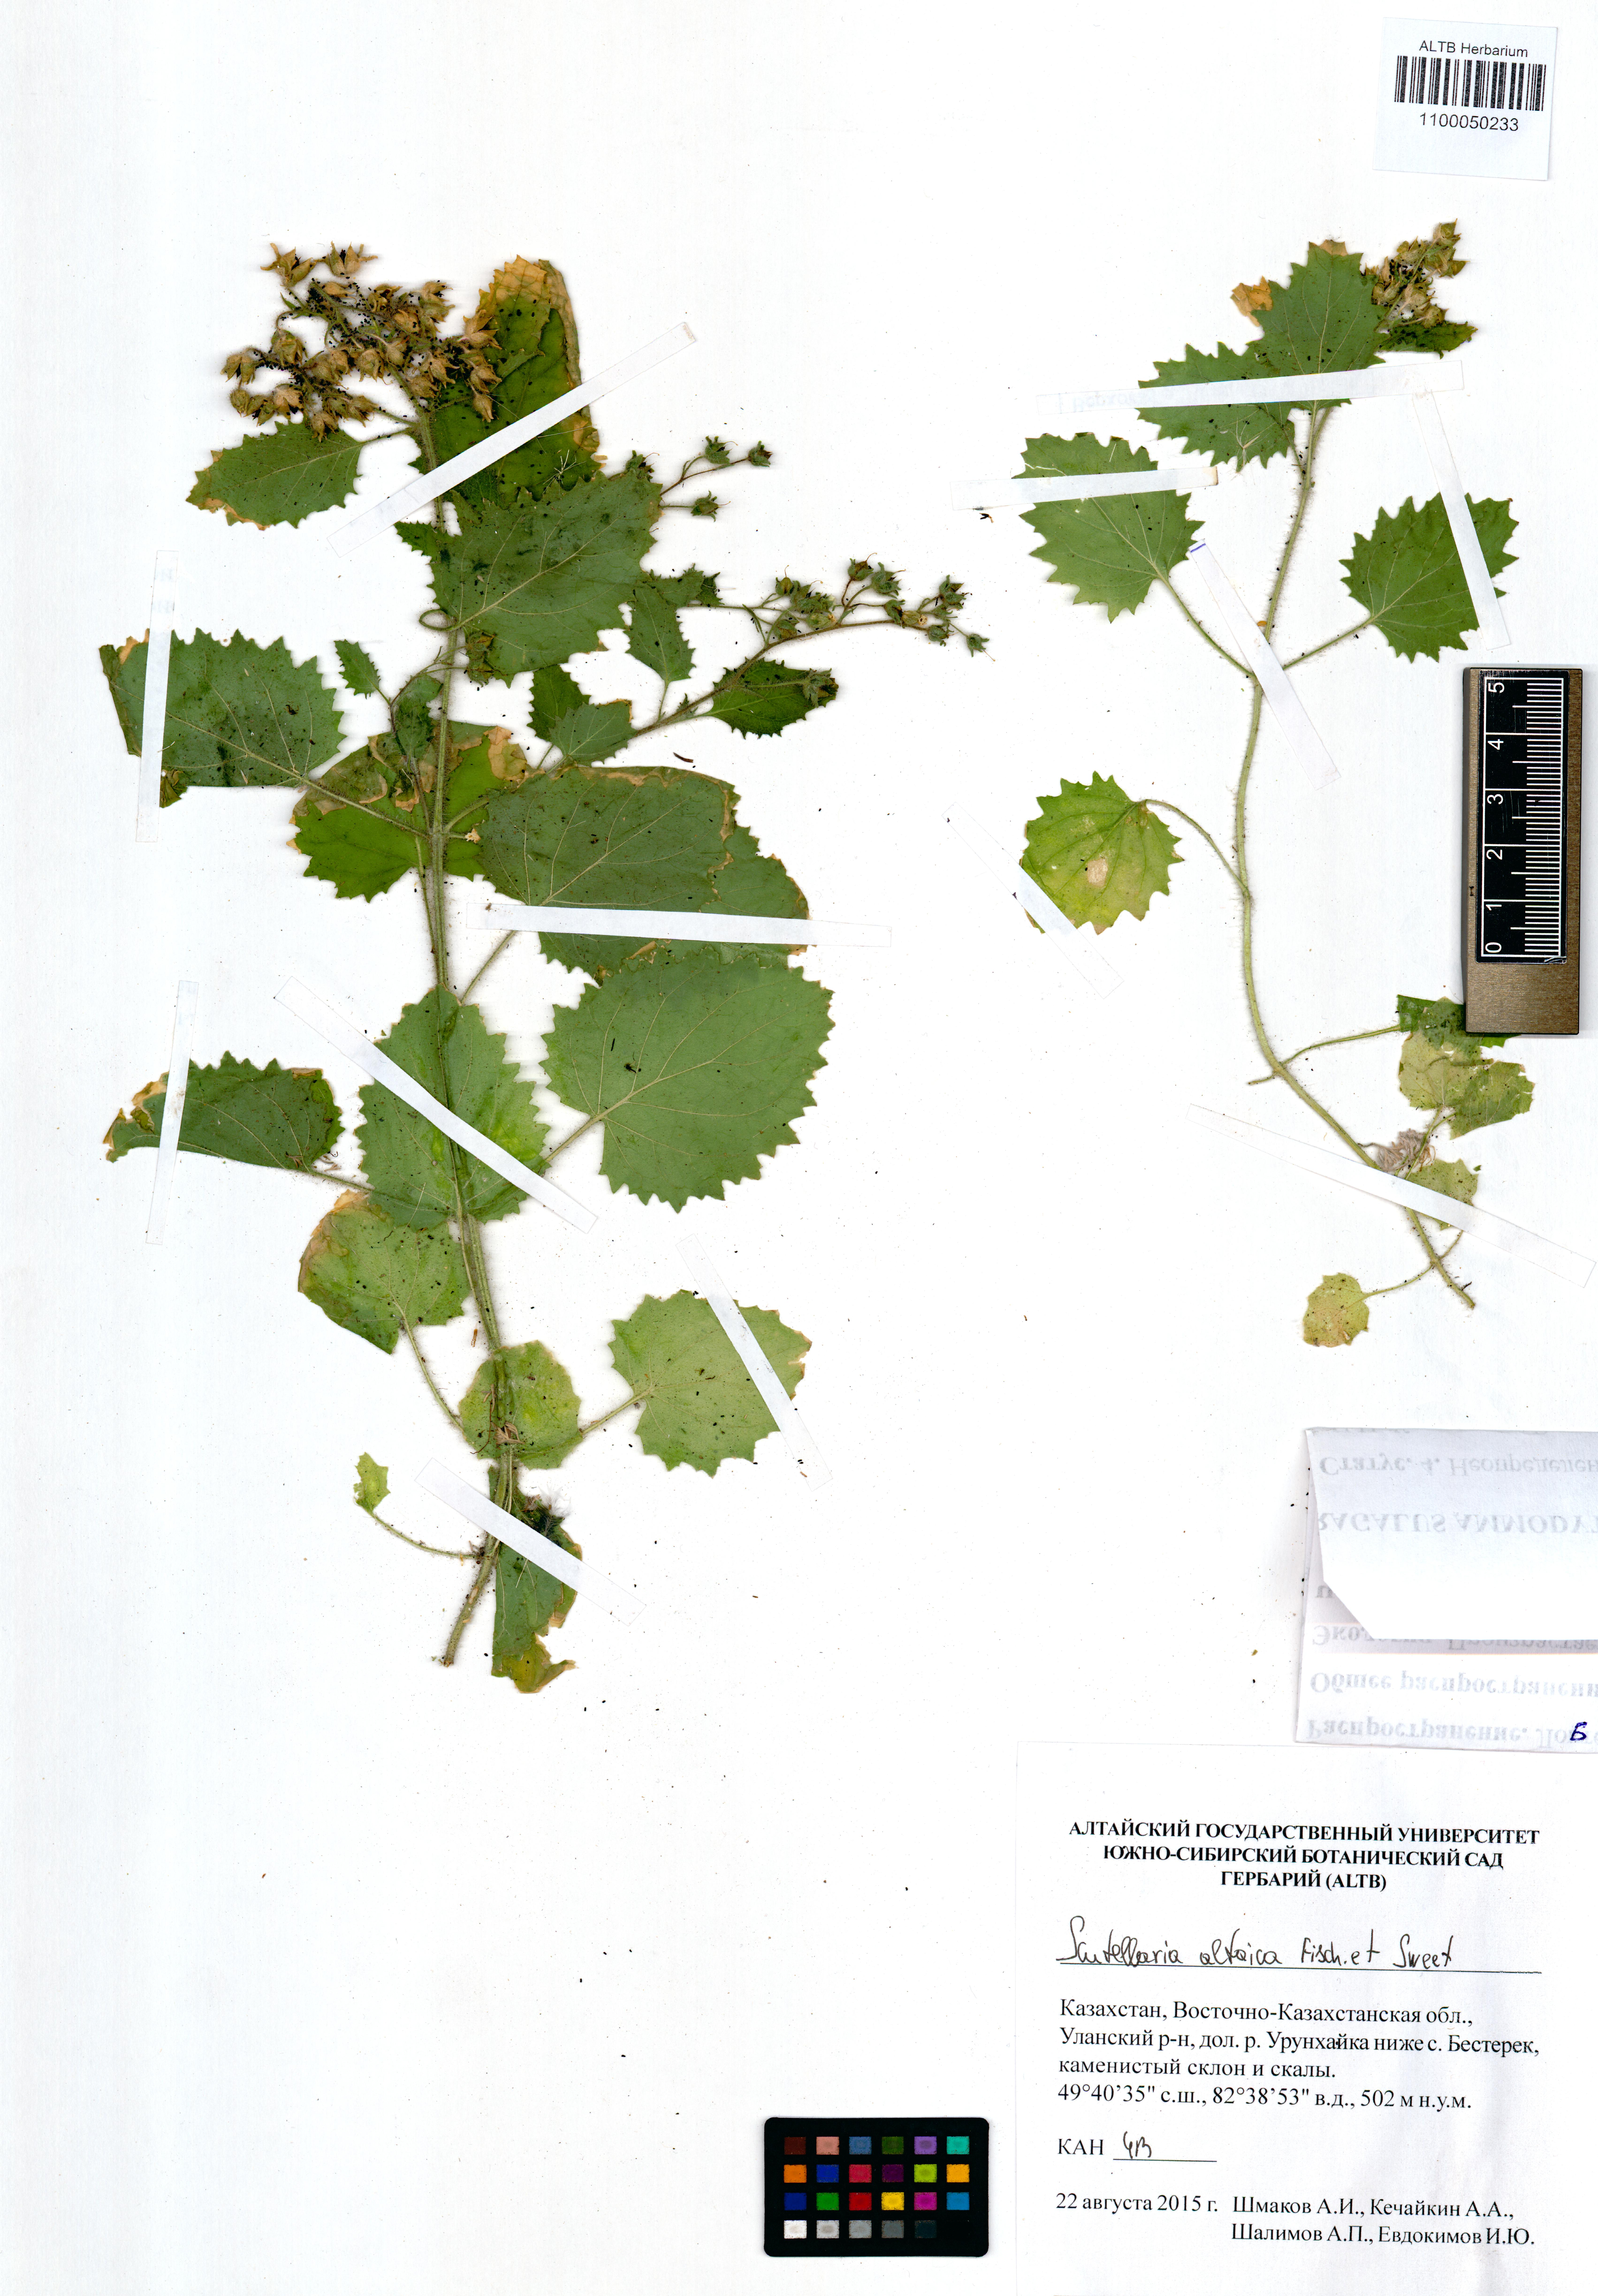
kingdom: Plantae
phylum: Tracheophyta
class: Magnoliopsida
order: Lamiales
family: Lamiaceae
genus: Scutellaria
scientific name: Scutellaria altaica
